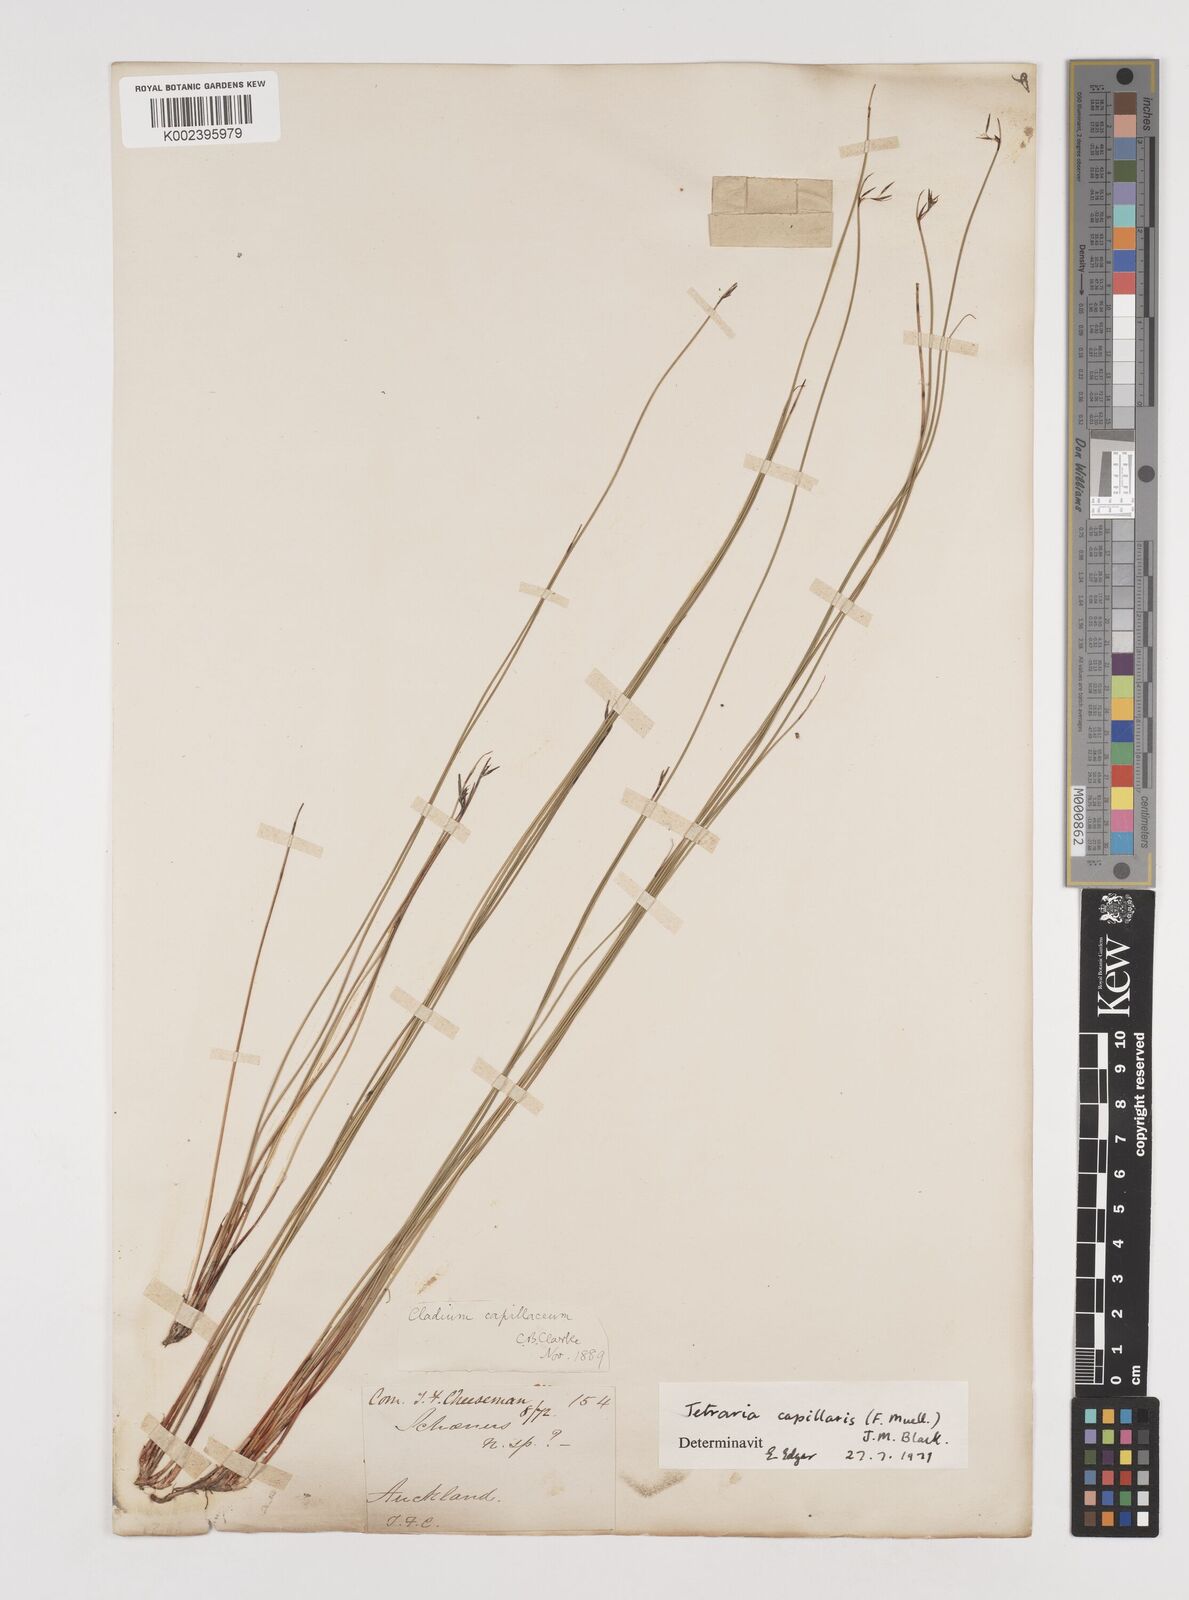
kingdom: Plantae
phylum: Tracheophyta
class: Liliopsida
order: Poales
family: Cyperaceae
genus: Tetraria
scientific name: Tetraria capillaris
